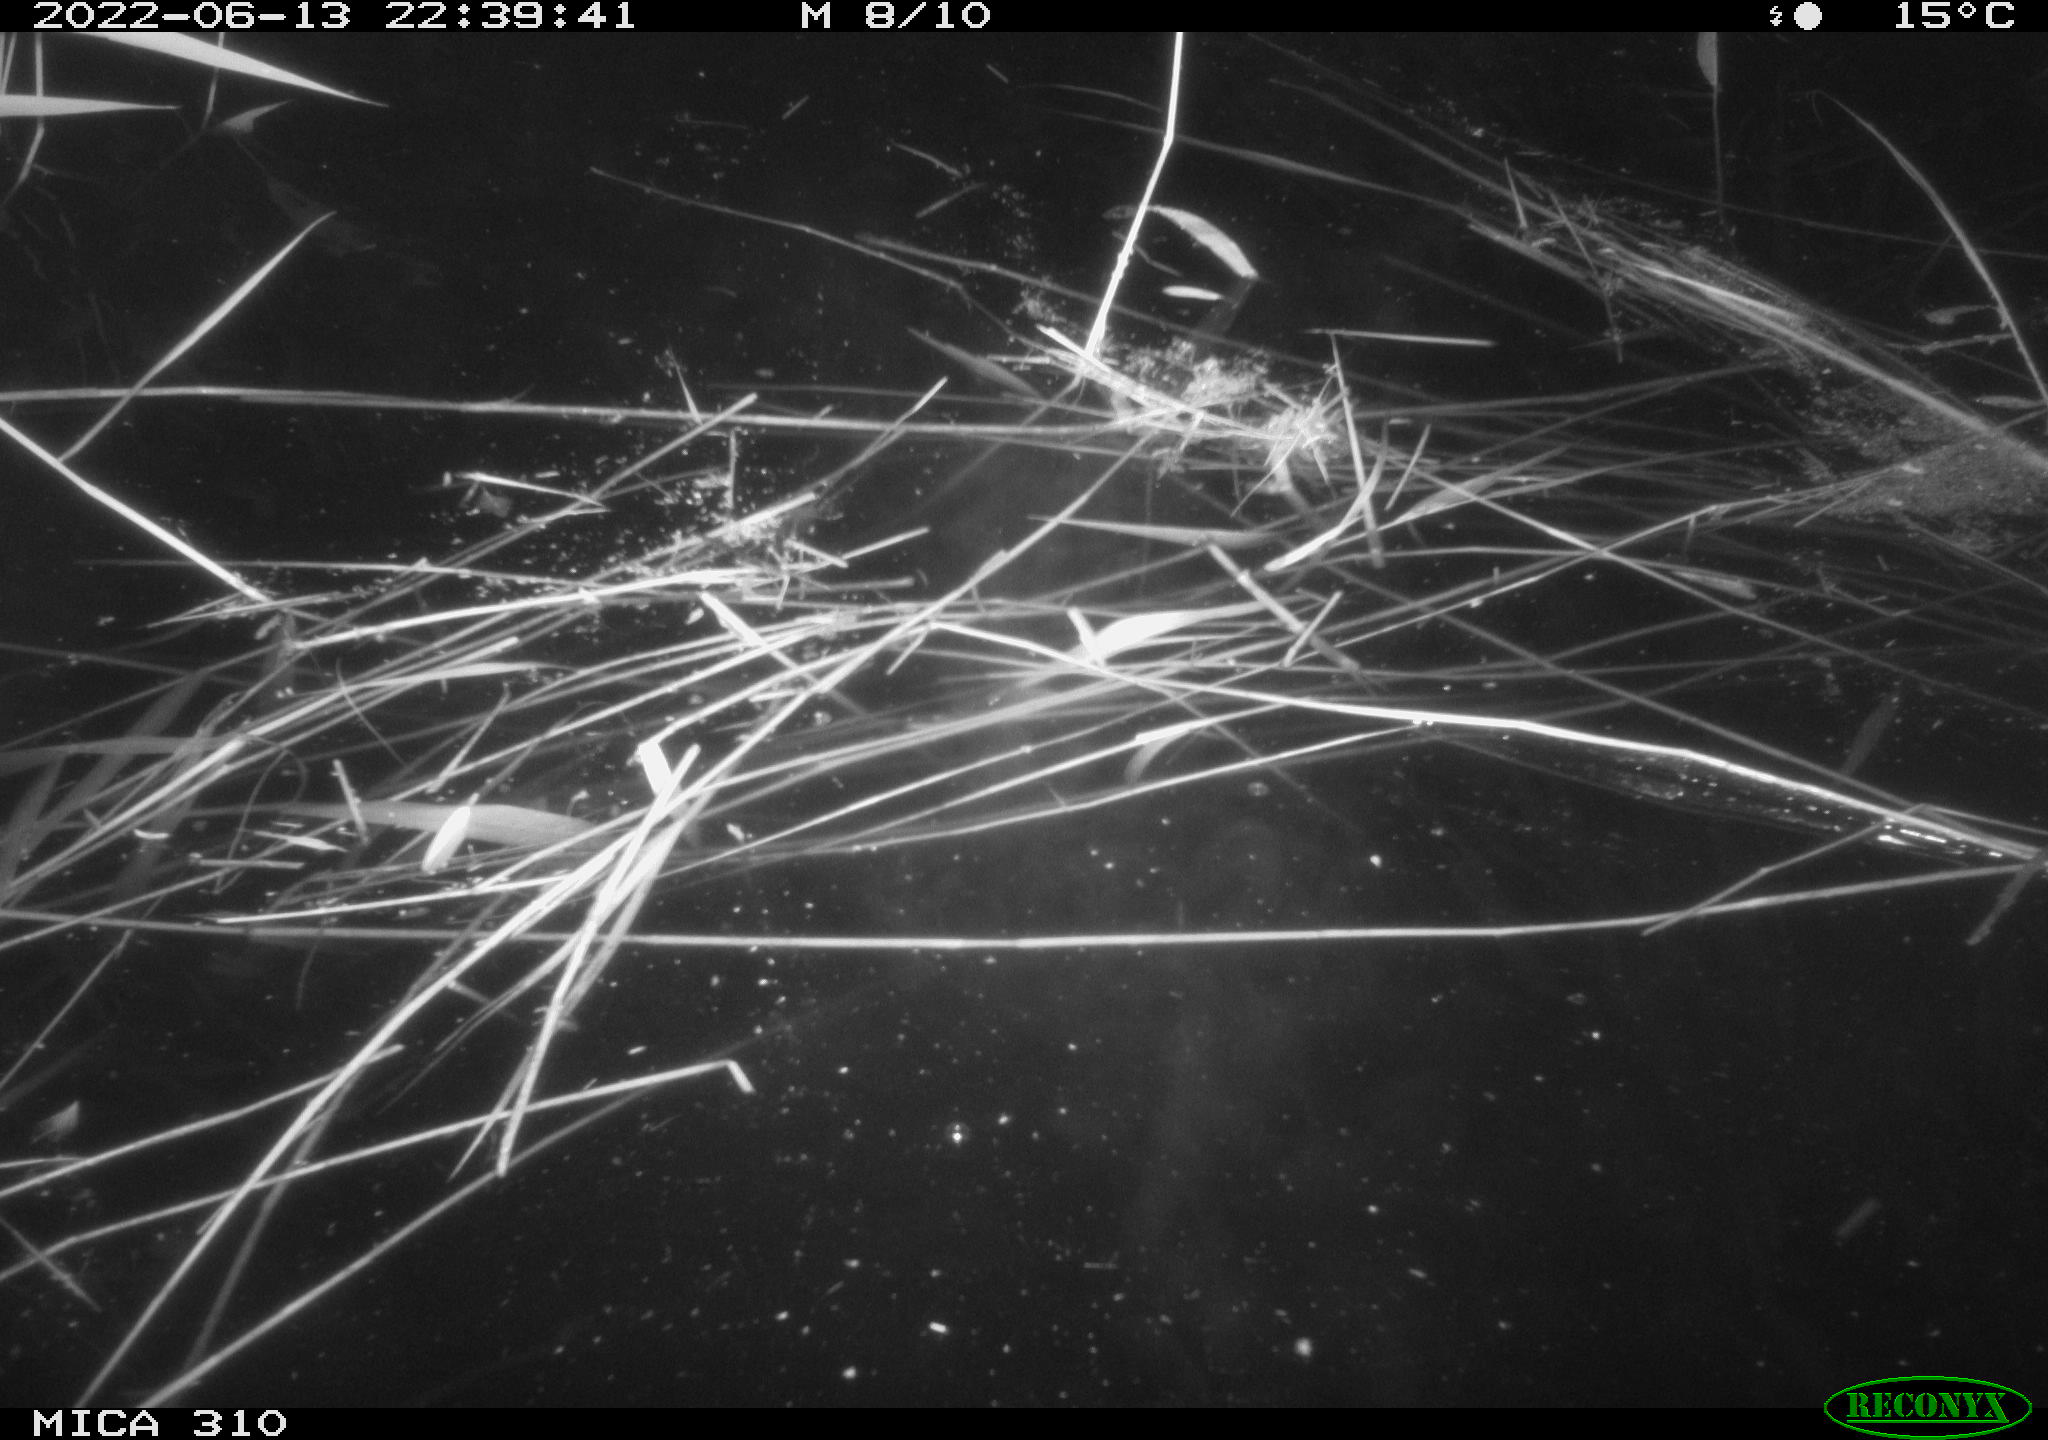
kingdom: Animalia
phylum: Chordata
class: Aves
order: Anseriformes
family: Anatidae
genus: Anas
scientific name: Anas platyrhynchos
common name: Mallard
